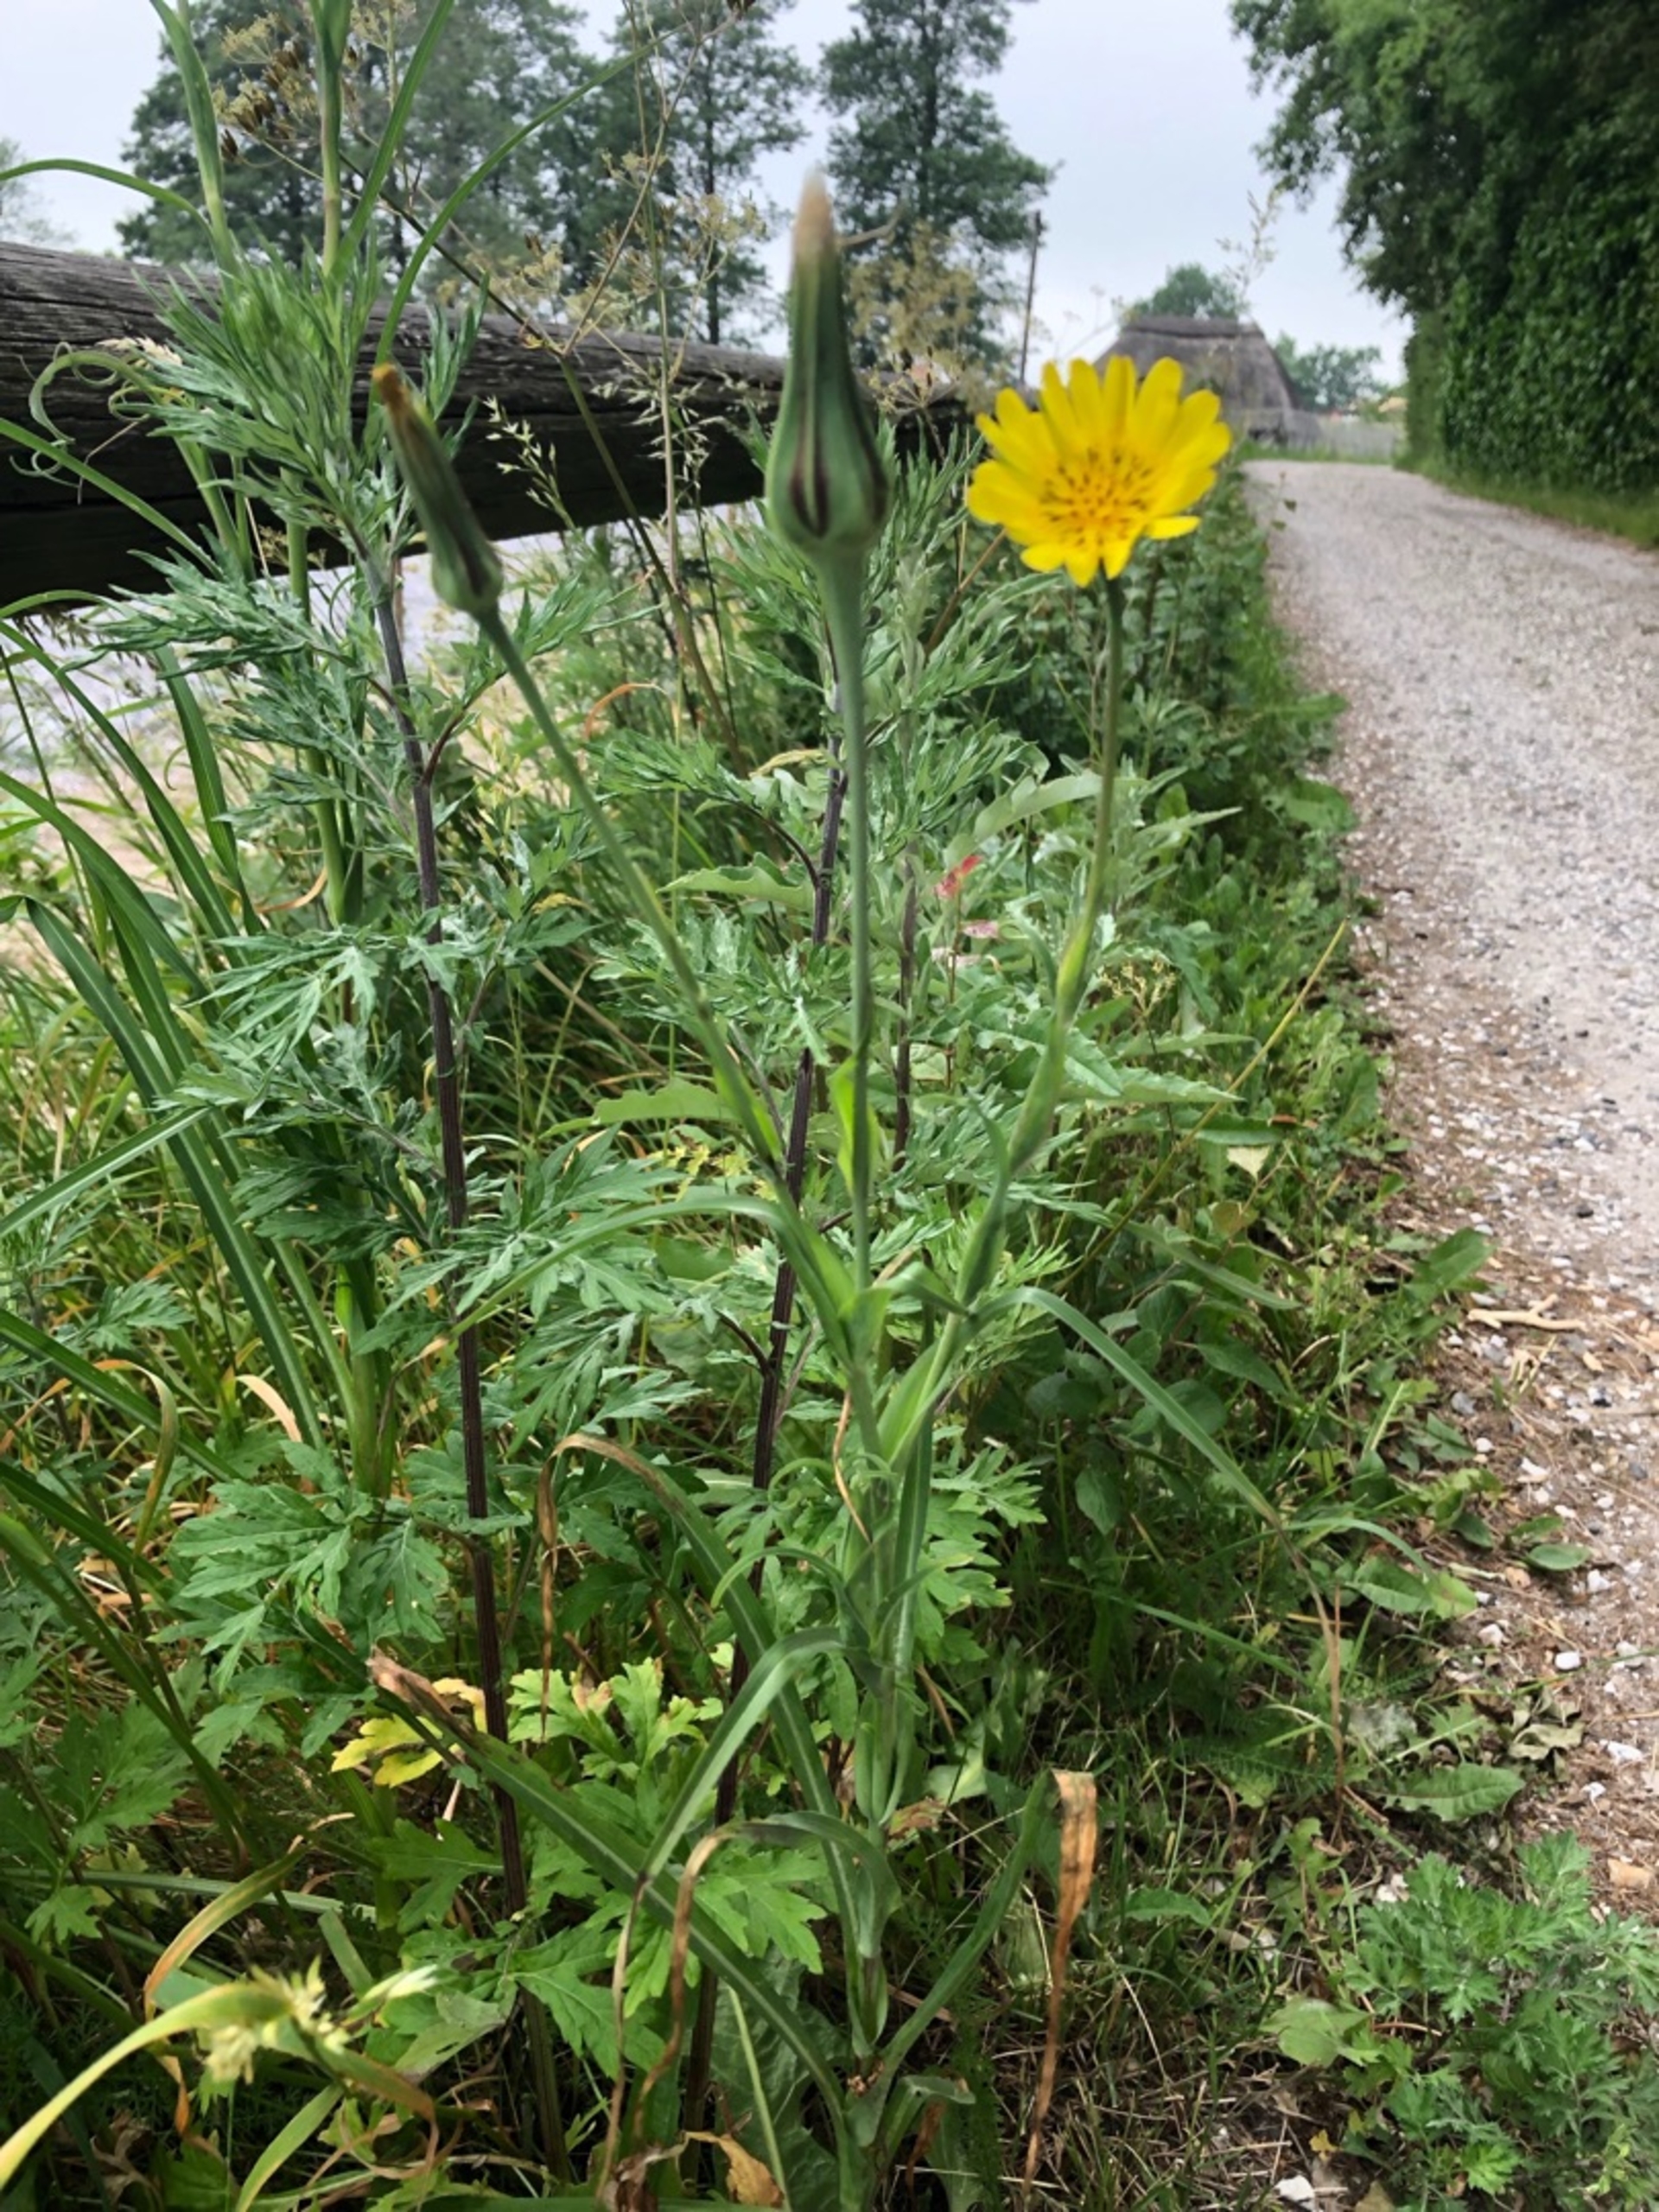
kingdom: Plantae
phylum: Tracheophyta
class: Magnoliopsida
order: Asterales
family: Asteraceae
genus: Tragopogon
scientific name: Tragopogon pratensis
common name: Eng-gedeskæg
